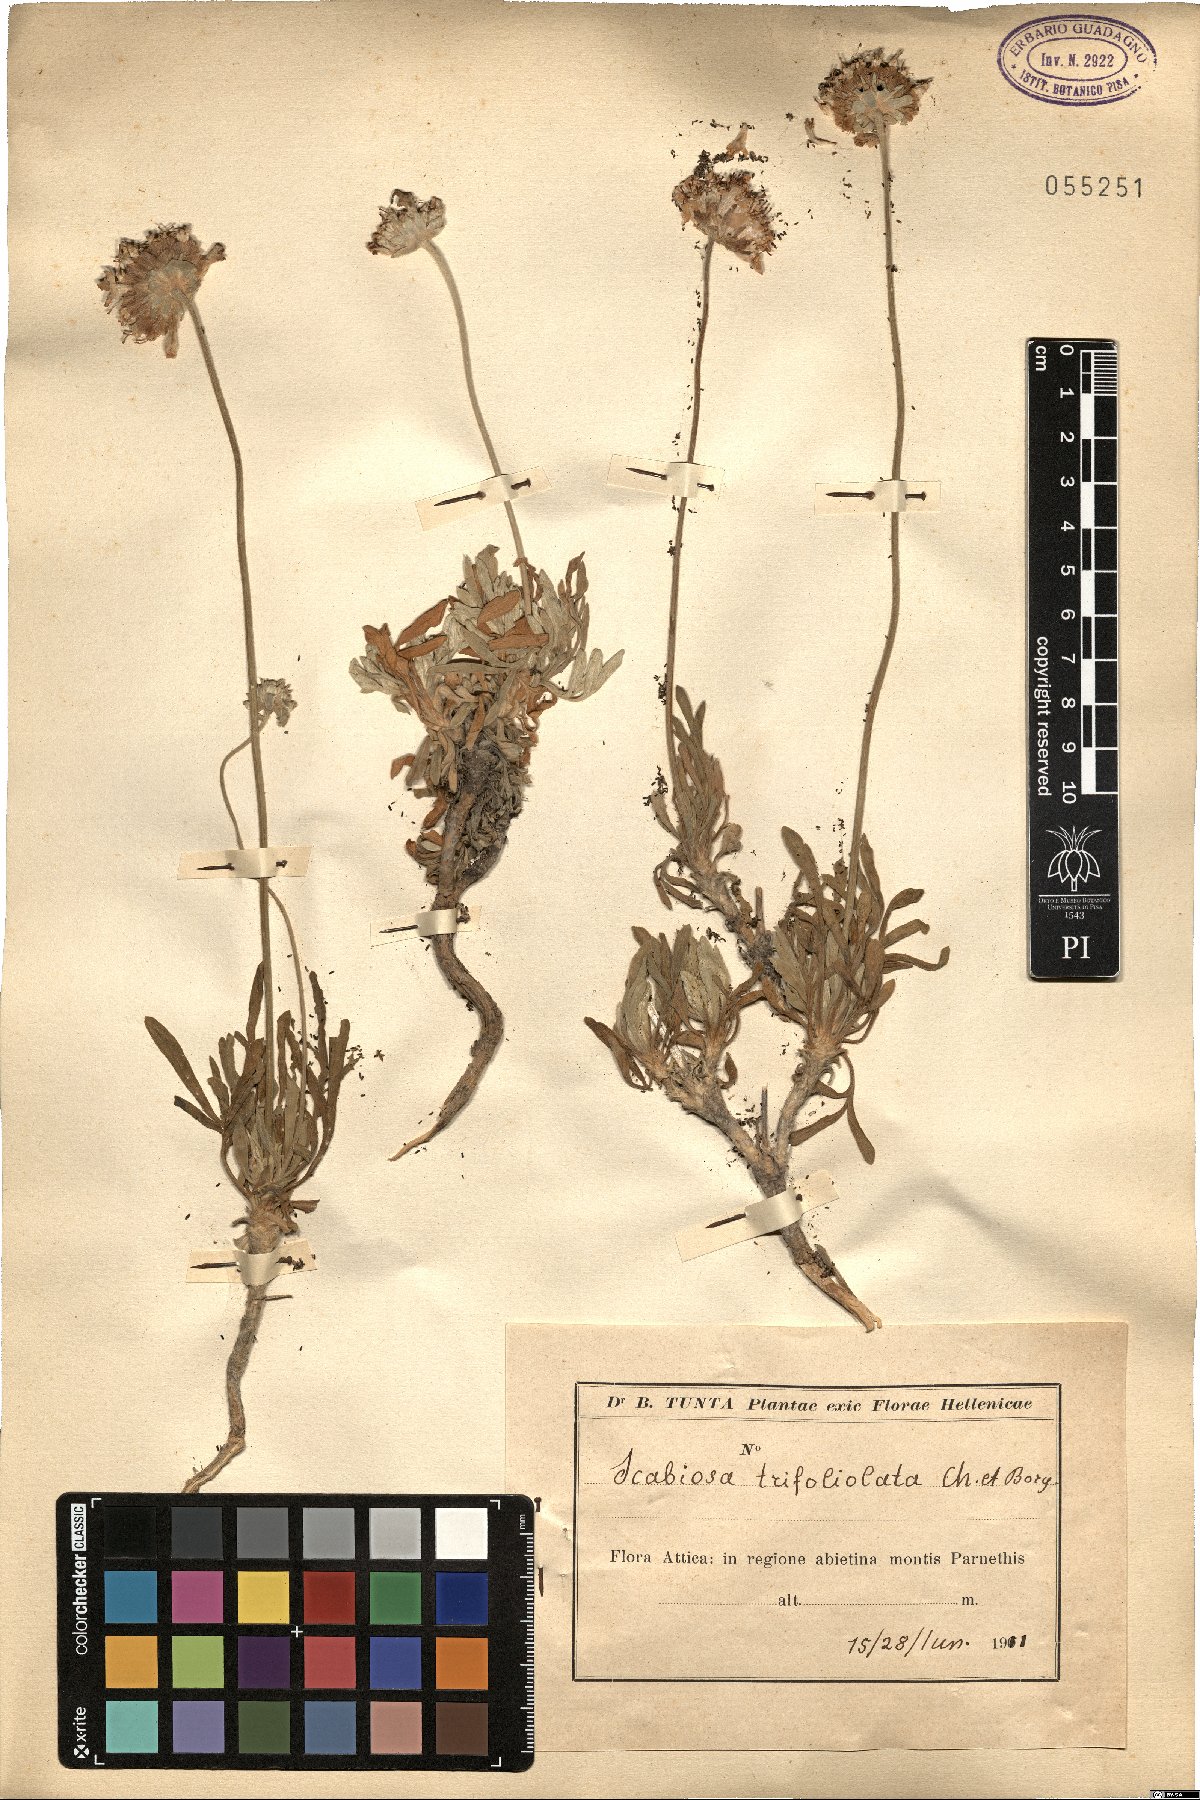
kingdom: Plantae
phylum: Tracheophyta
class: Magnoliopsida
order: Dipsacales
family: Caprifoliaceae
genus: Lomelosia
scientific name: Lomelosia hymettia
